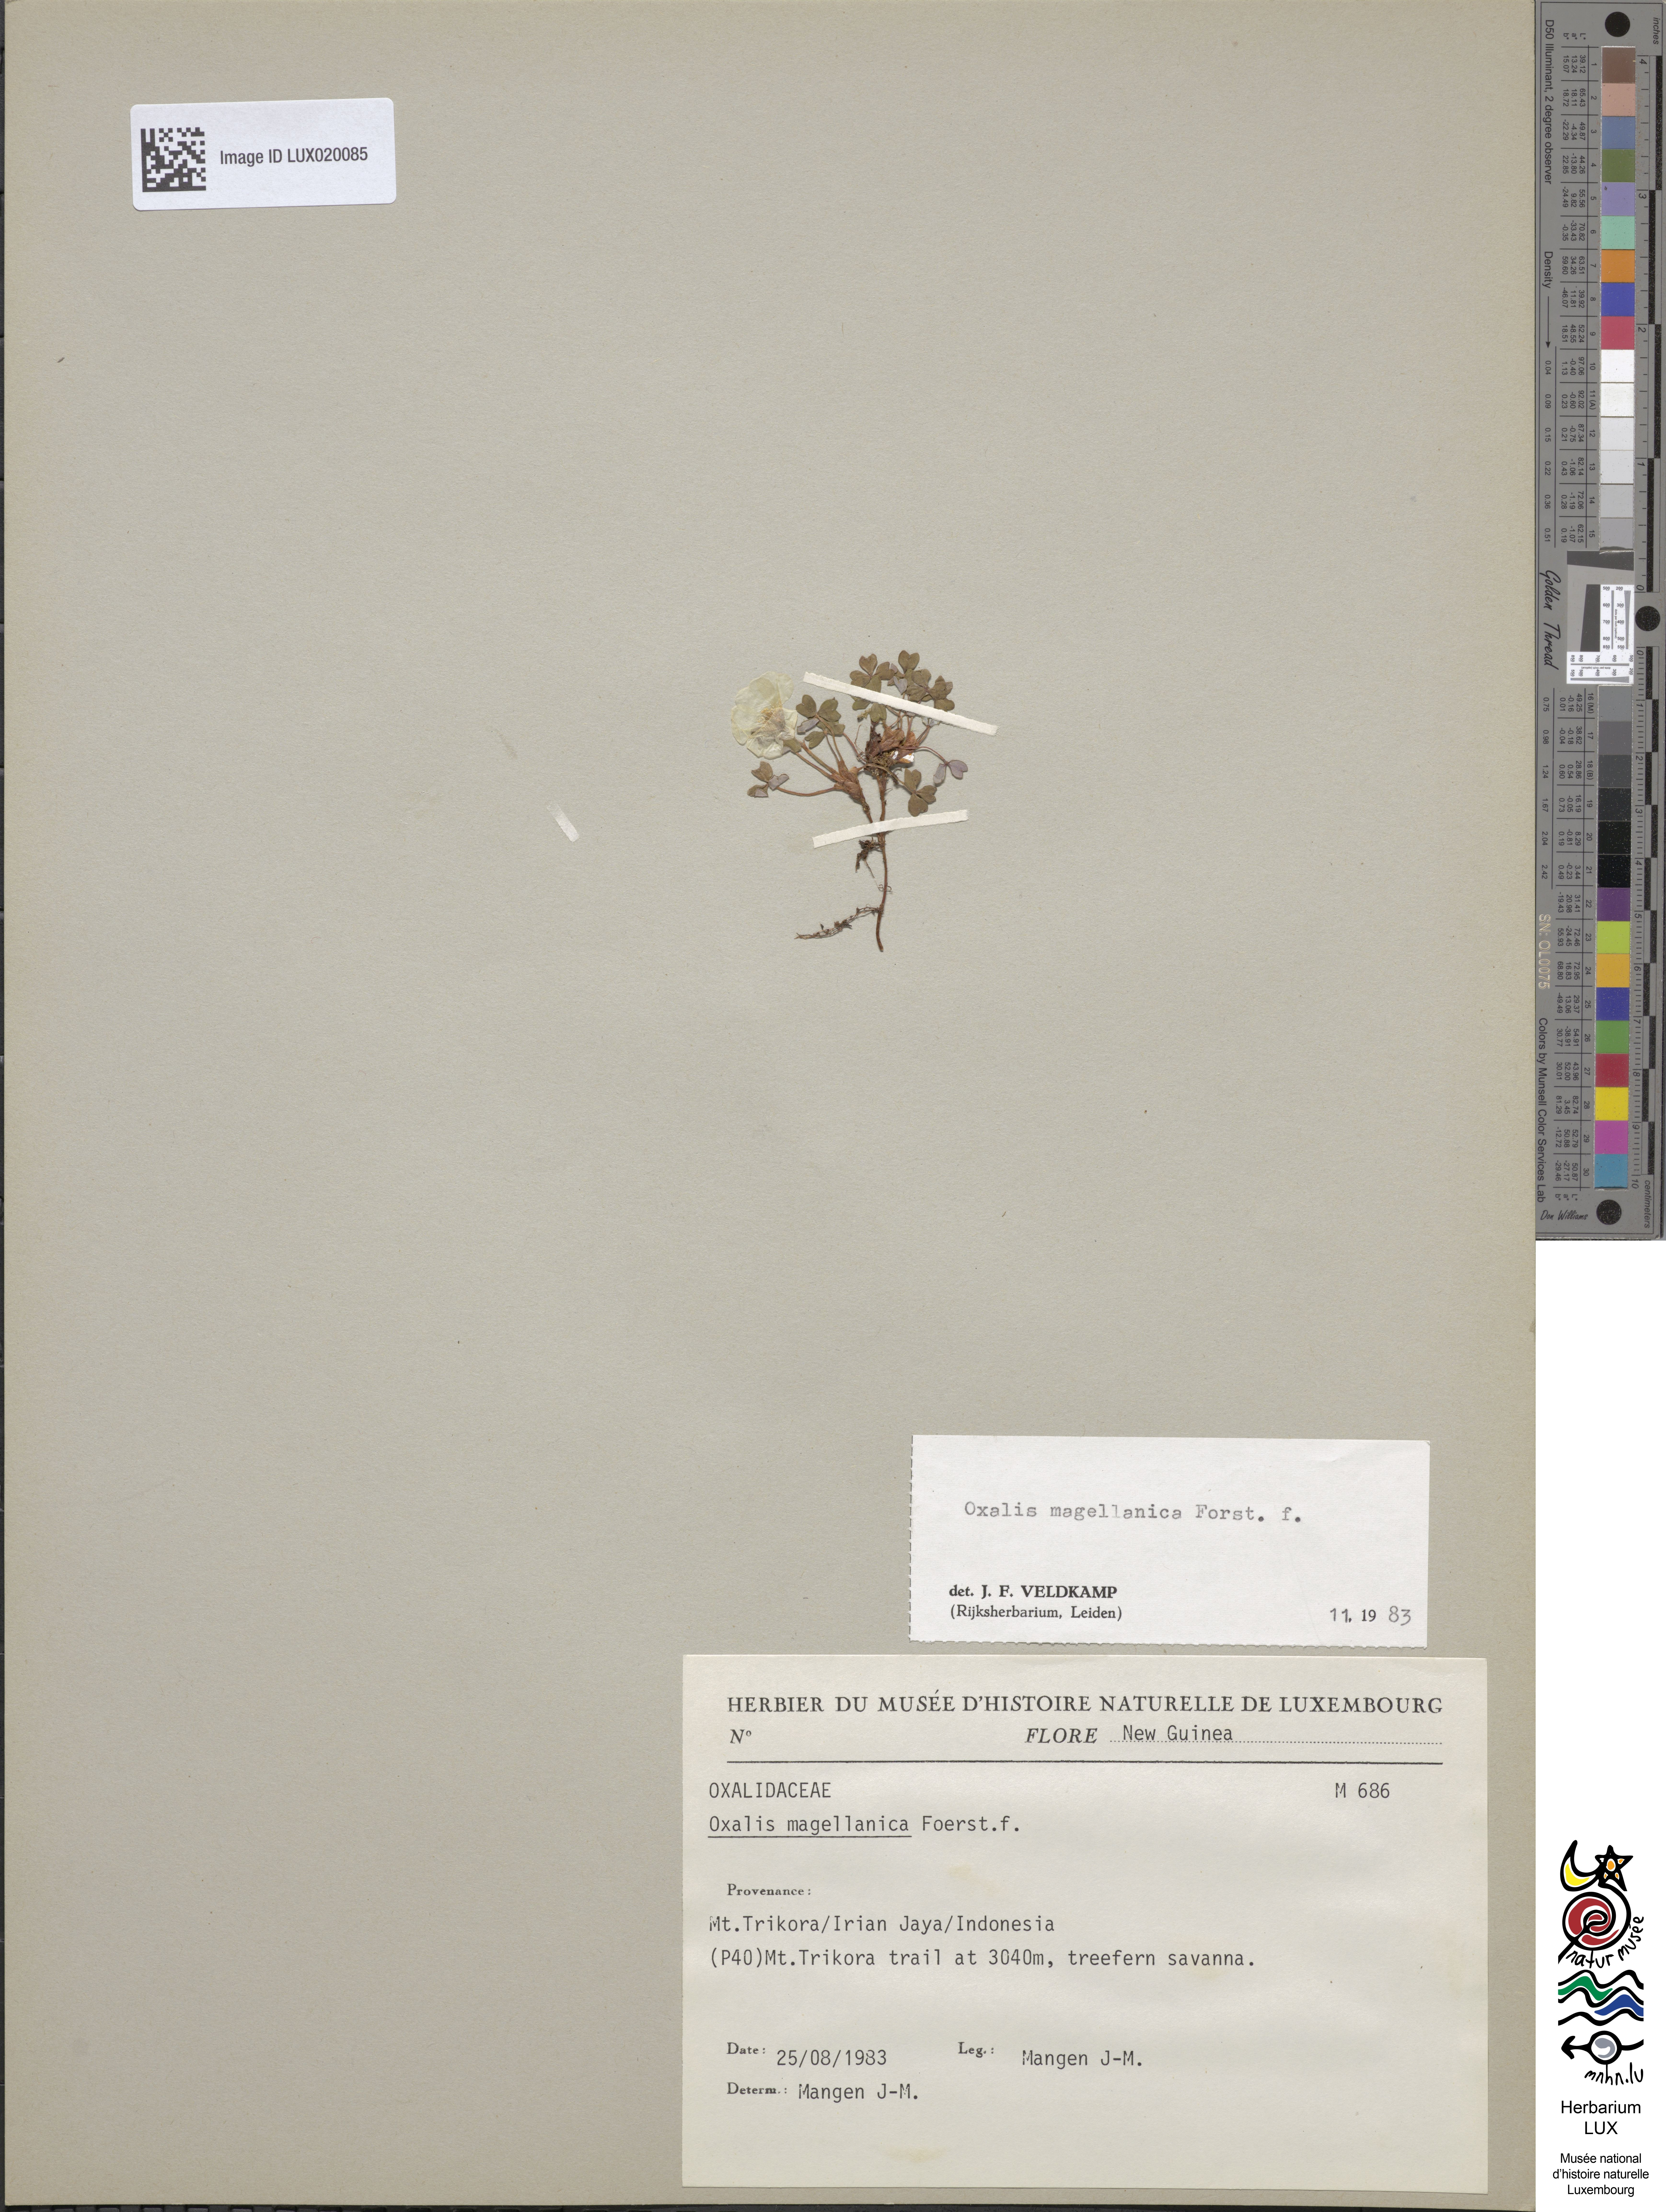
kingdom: Plantae
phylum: Tracheophyta
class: Magnoliopsida
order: Oxalidales
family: Oxalidaceae
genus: Oxalis
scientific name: Oxalis magellanica
